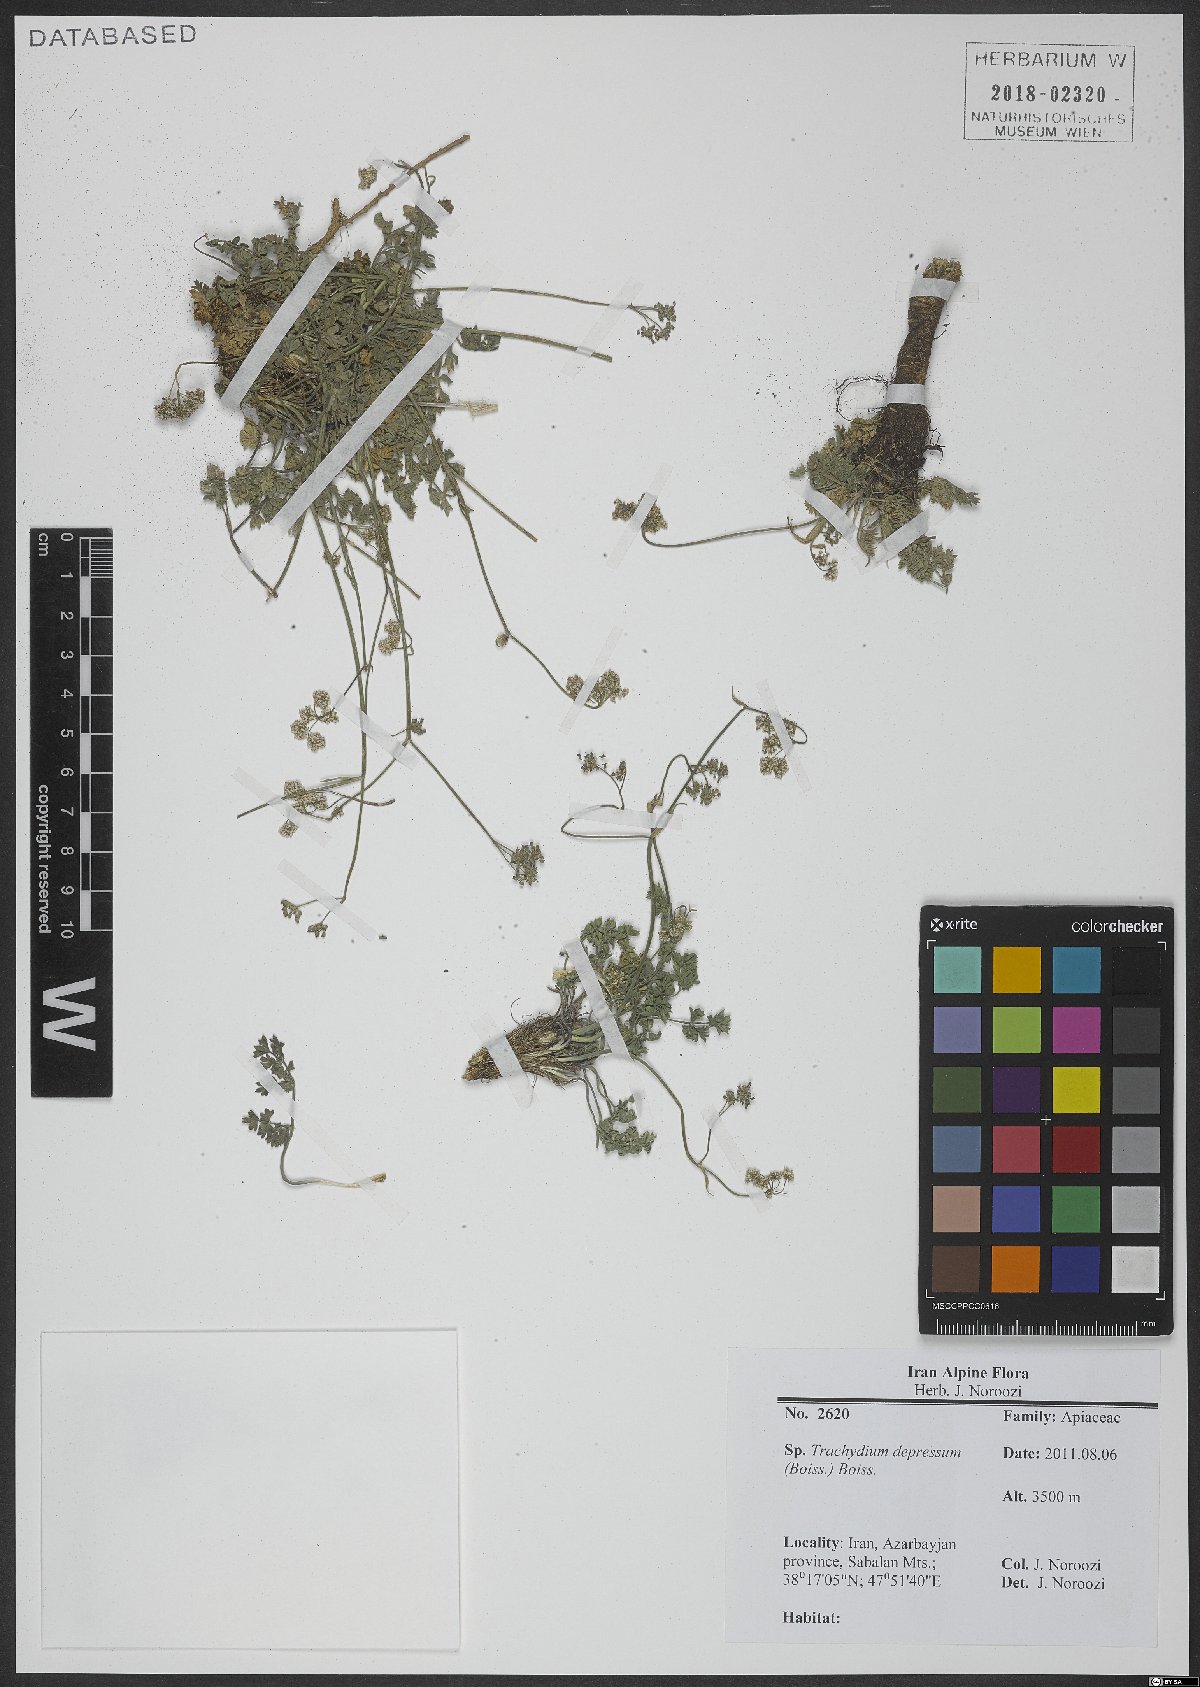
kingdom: Plantae
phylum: Tracheophyta
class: Magnoliopsida
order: Apiales
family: Apiaceae
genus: Pseudotrachydium
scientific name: Pseudotrachydium depressum
